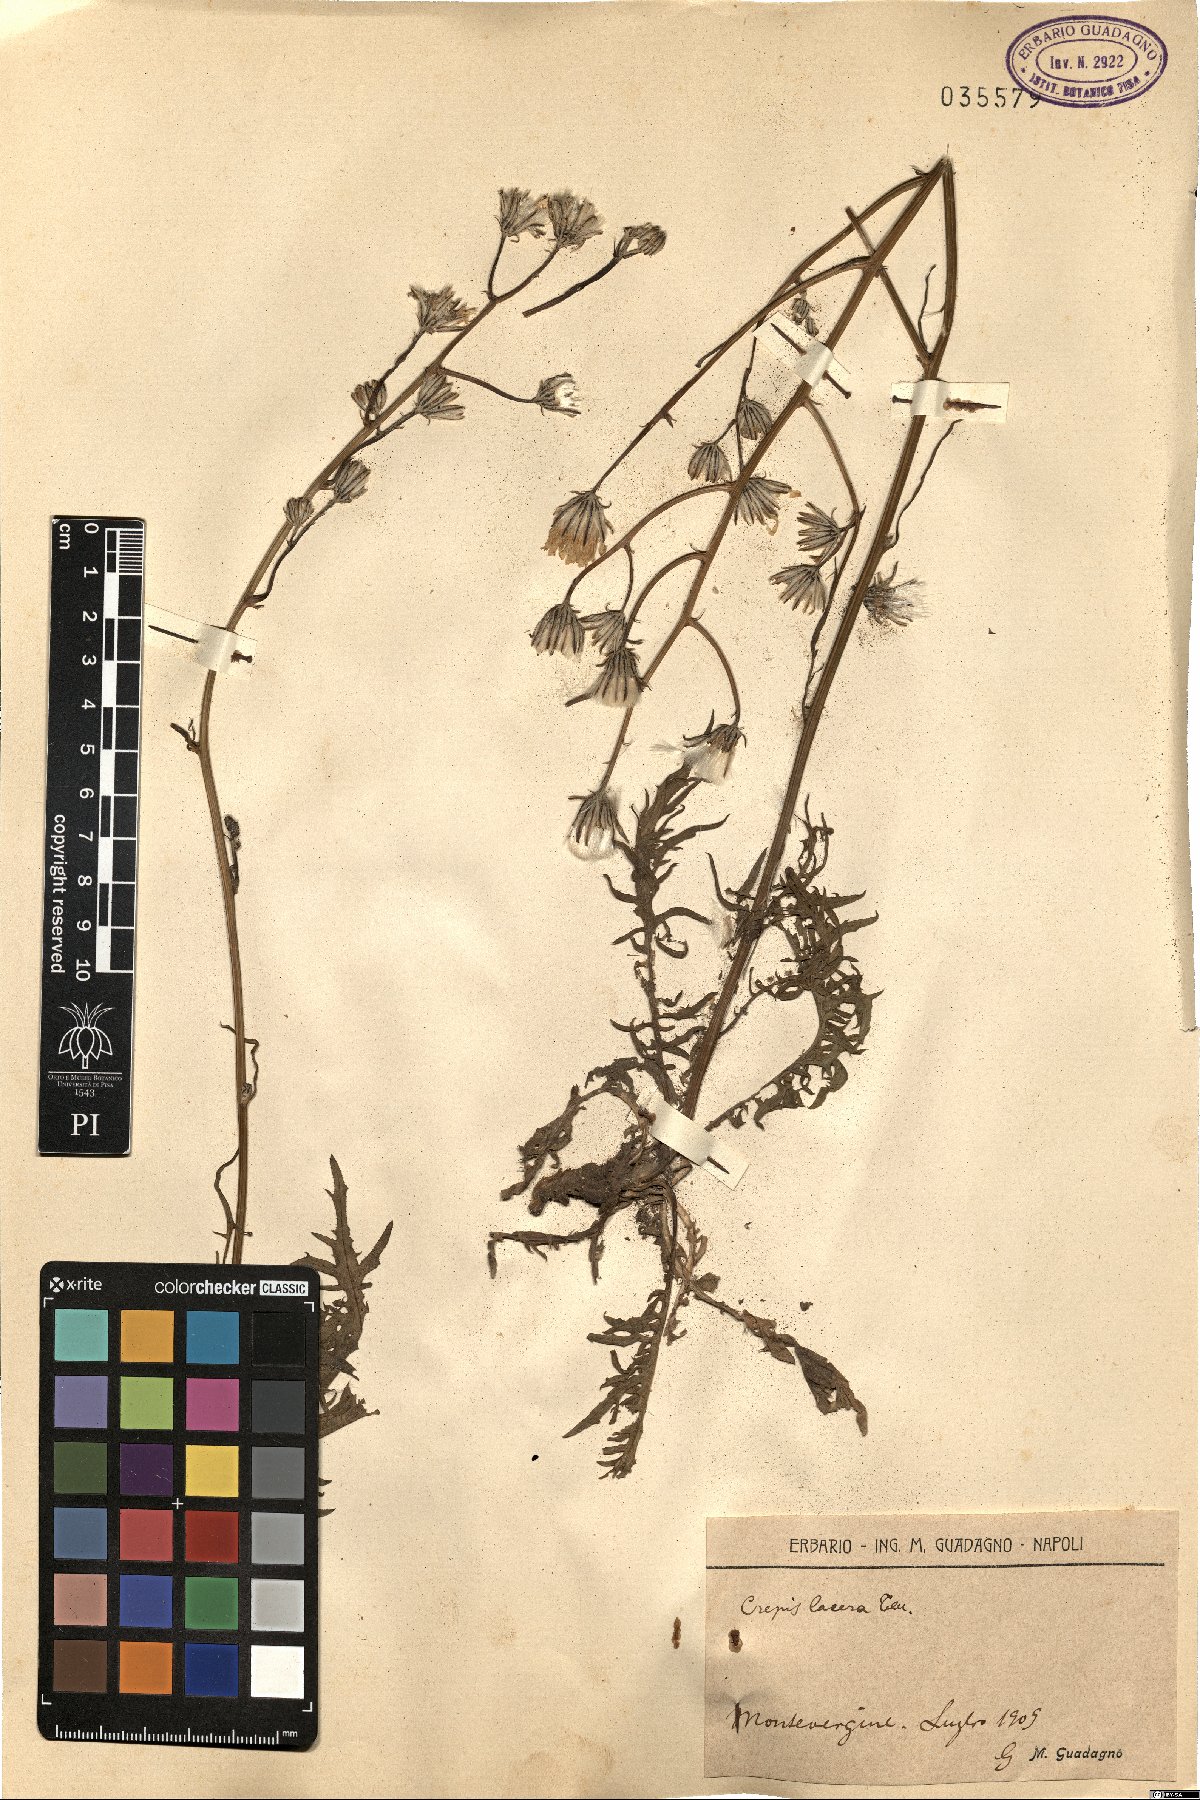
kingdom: Plantae
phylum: Tracheophyta
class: Magnoliopsida
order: Asterales
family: Asteraceae
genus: Crepis
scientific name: Crepis lacera
